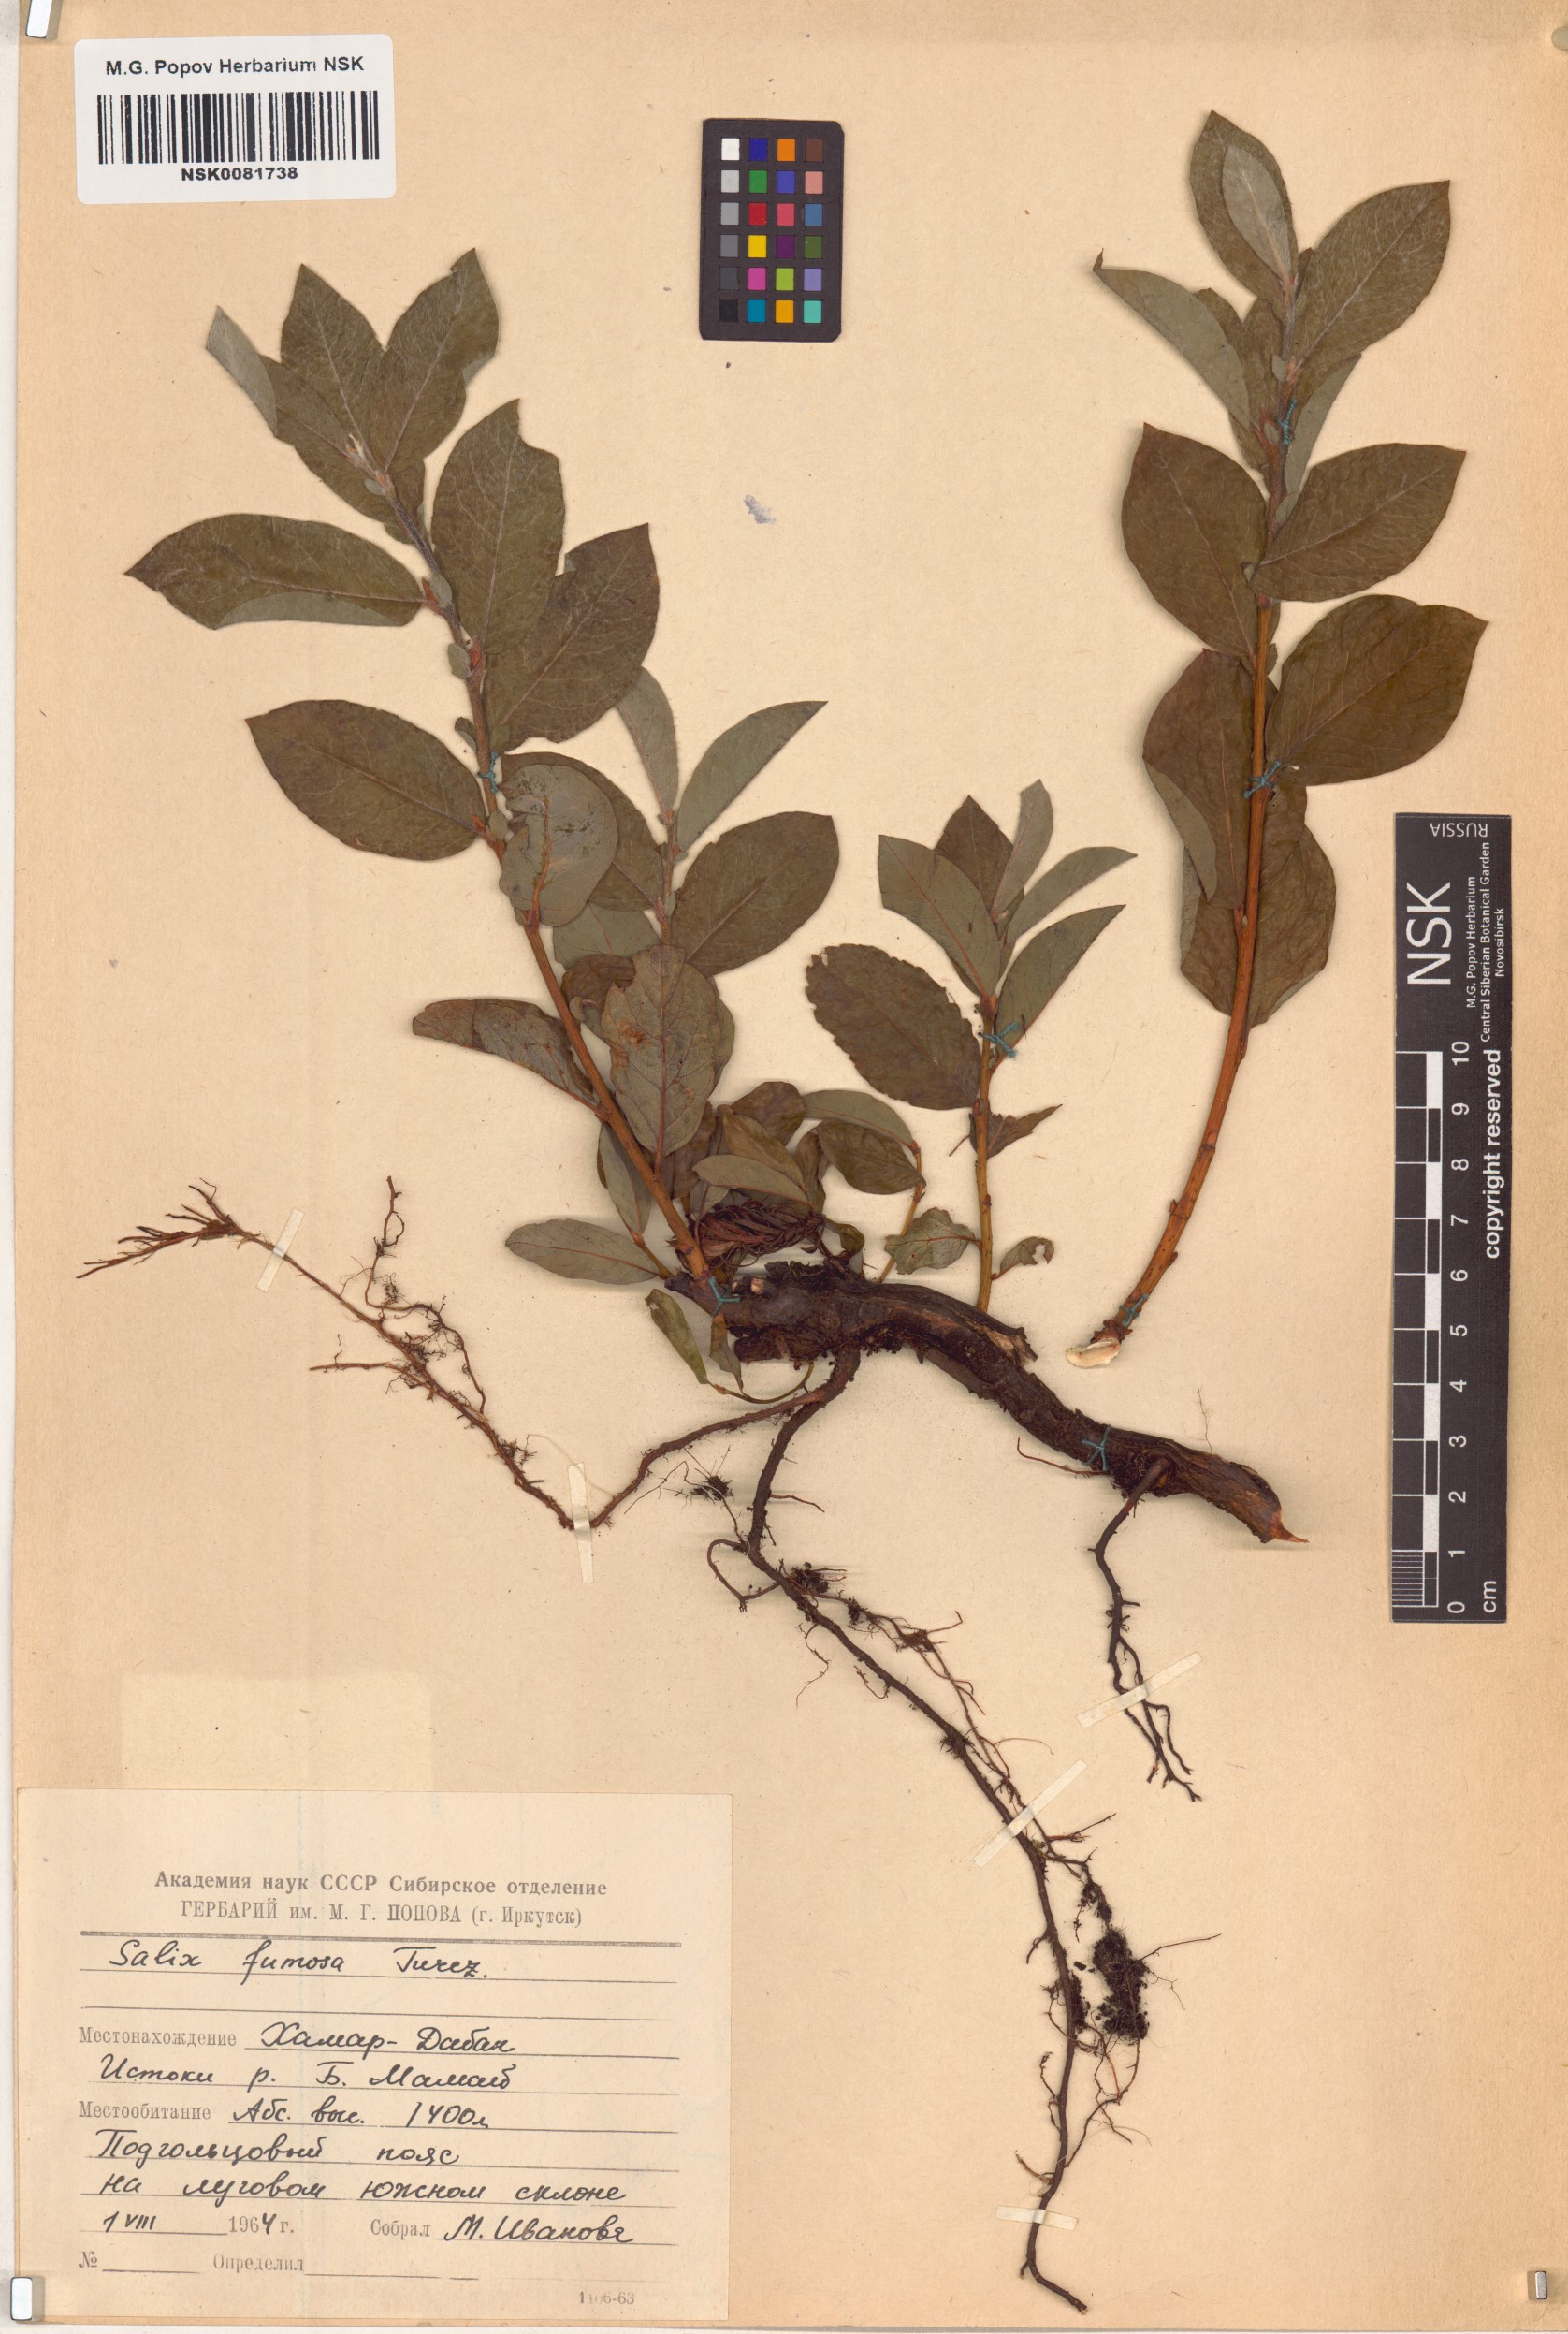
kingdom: Plantae
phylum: Tracheophyta
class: Magnoliopsida
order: Malpighiales
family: Salicaceae
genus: Salix
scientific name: Salix saxatilis
